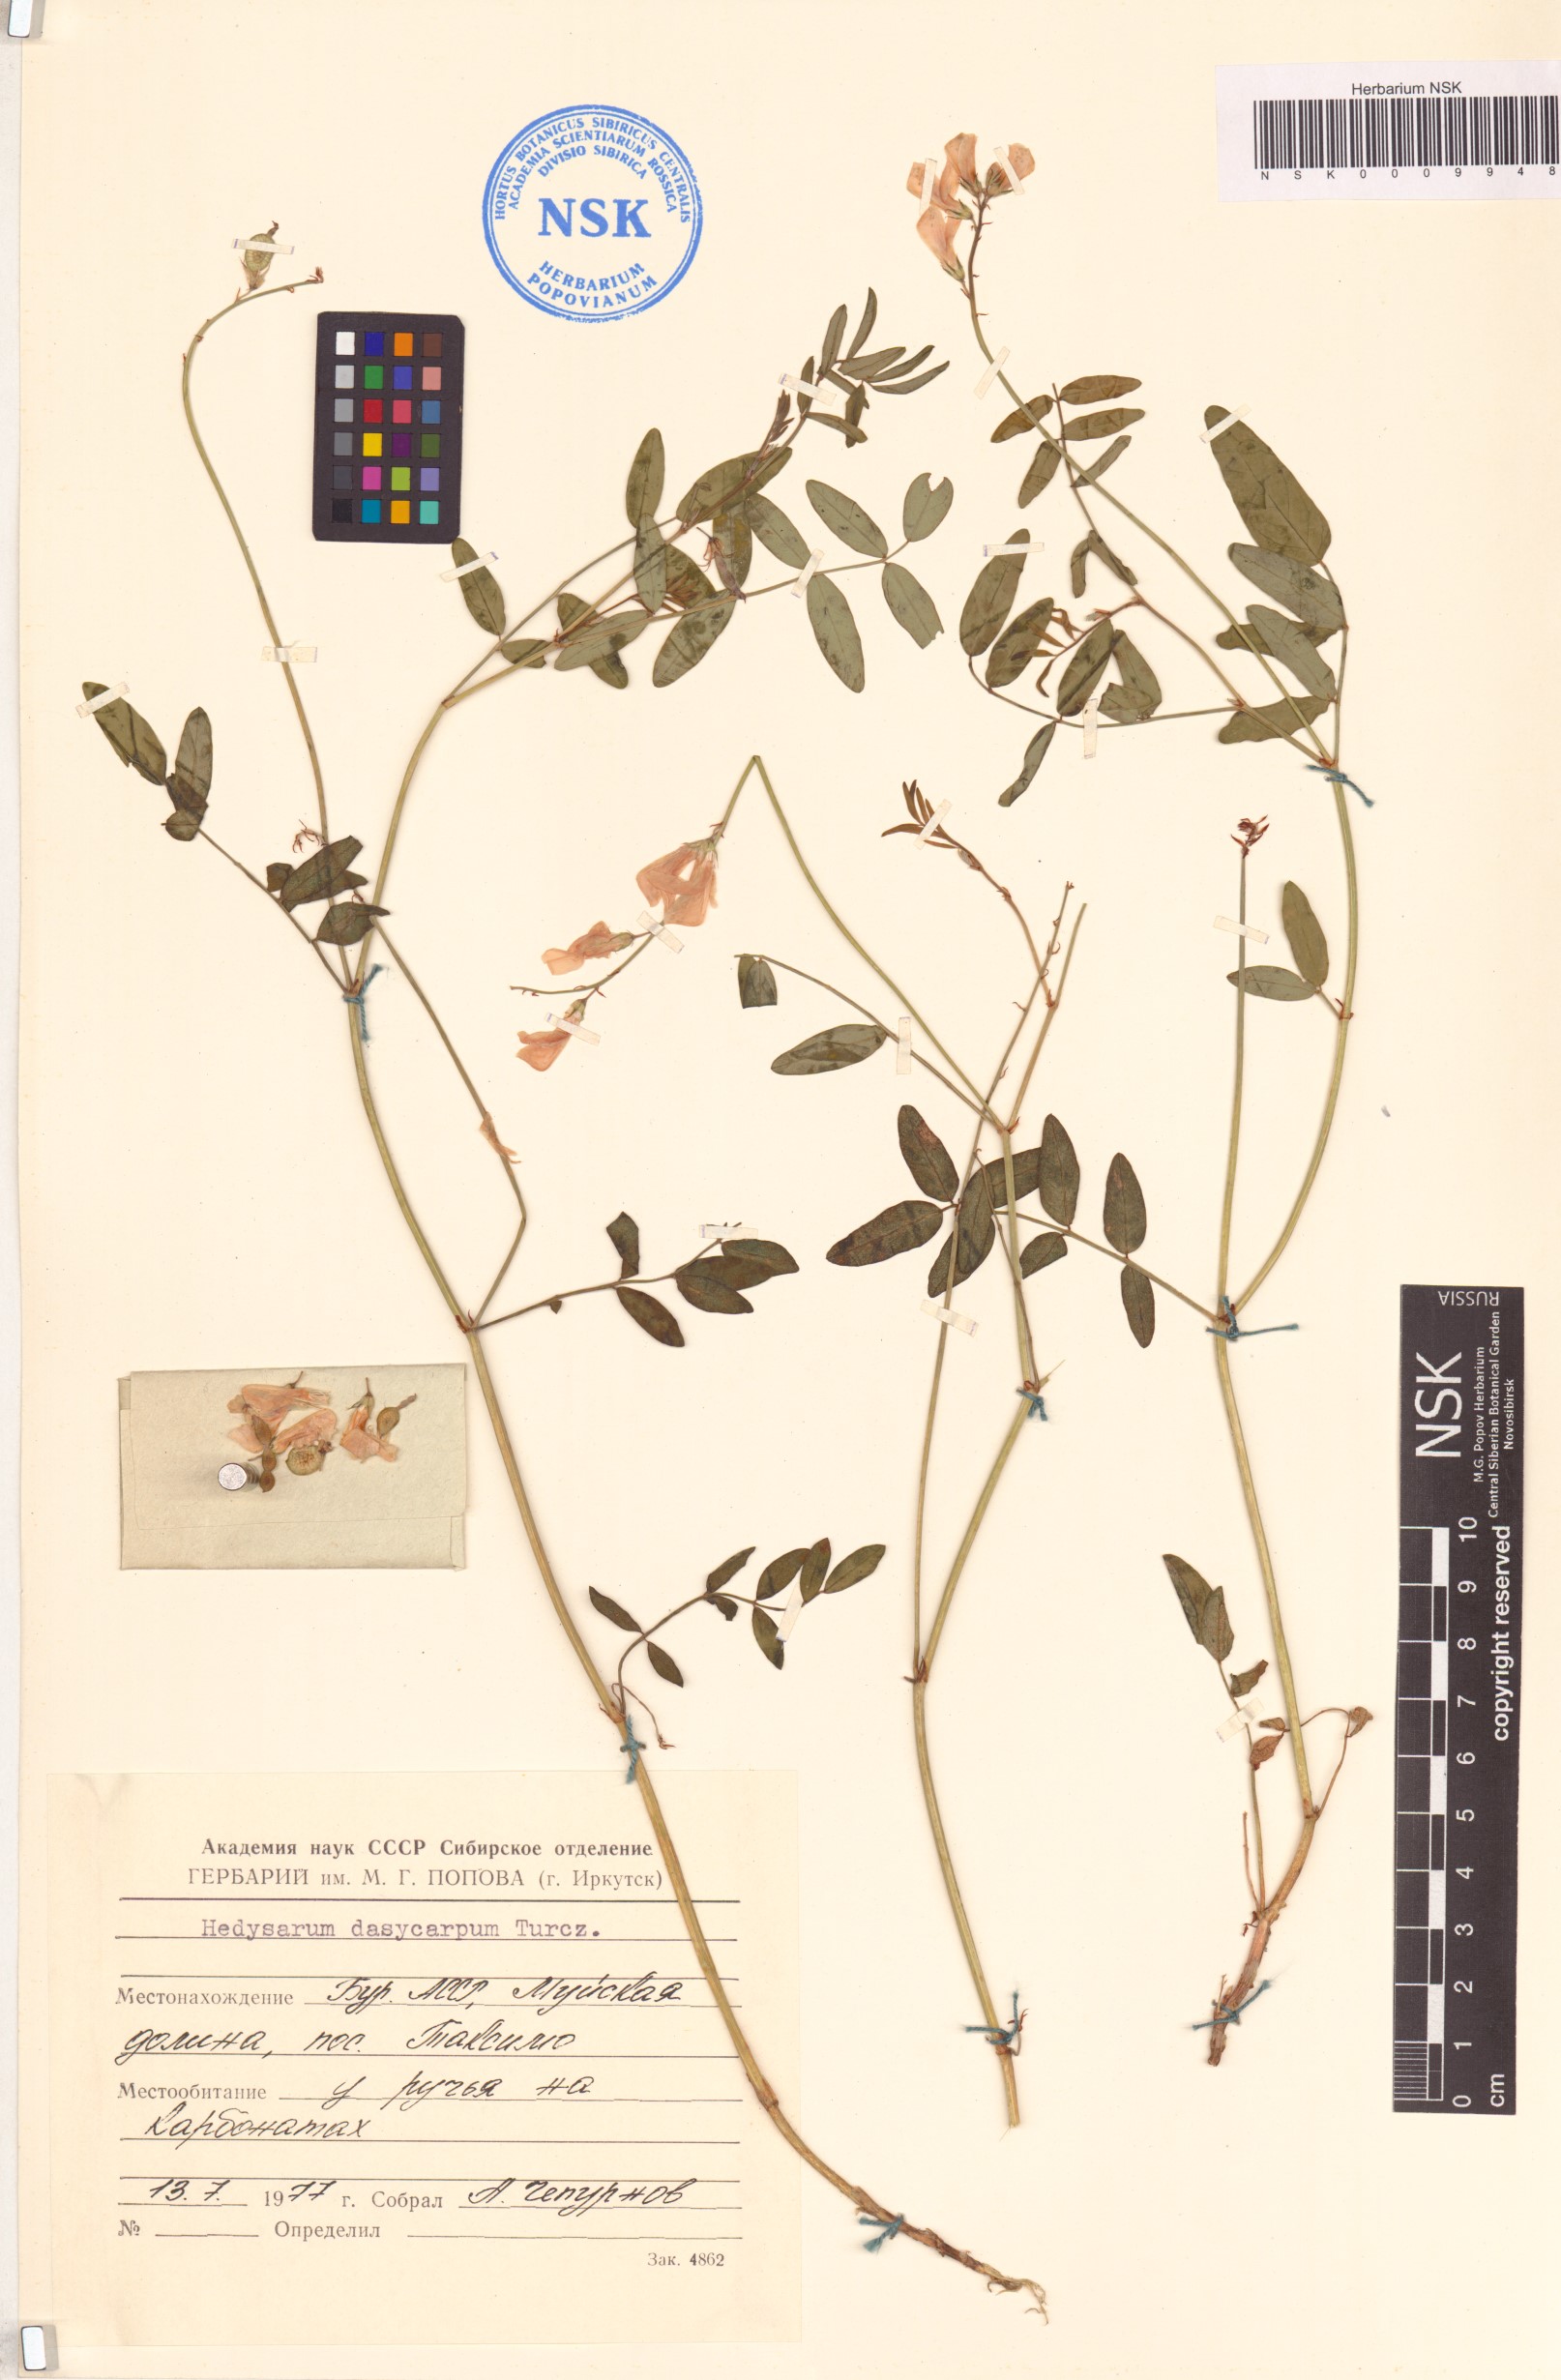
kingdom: Plantae
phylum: Tracheophyta
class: Magnoliopsida
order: Fabales
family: Fabaceae
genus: Hedysarum
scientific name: Hedysarum dasycarpum
